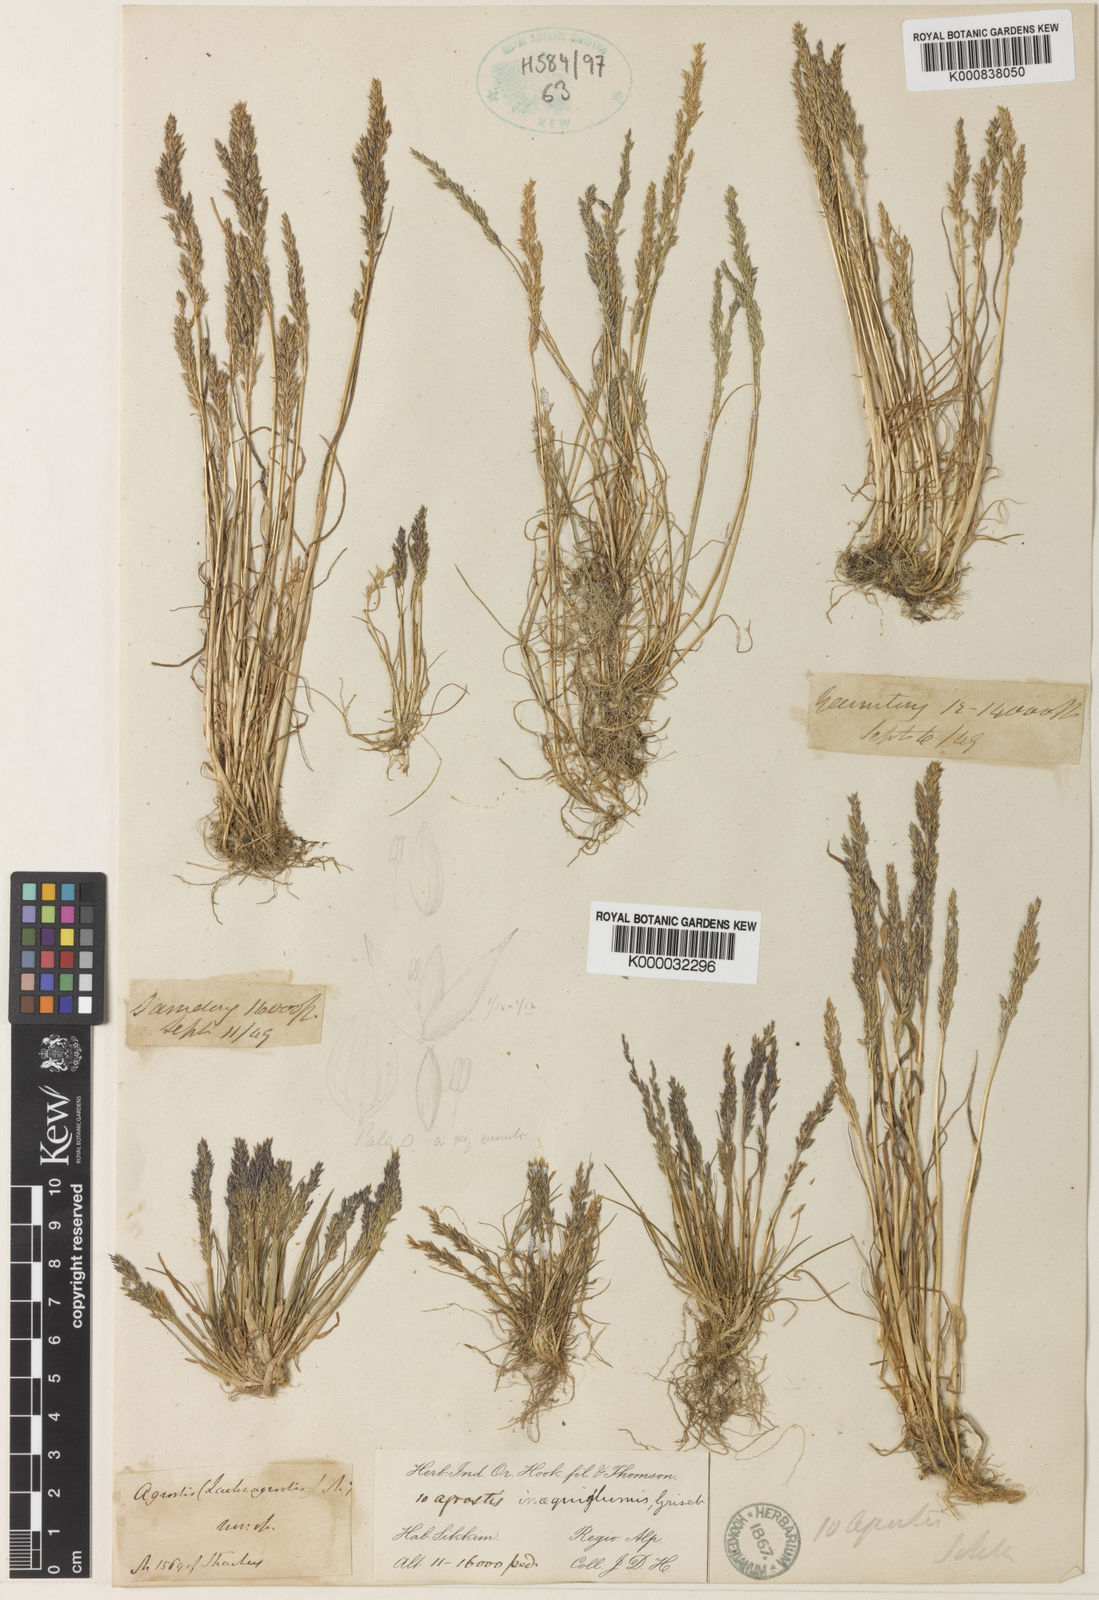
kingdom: Plantae
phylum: Tracheophyta
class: Liliopsida
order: Poales
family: Poaceae
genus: Agrostis
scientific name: Agrostis inaequiglumis
